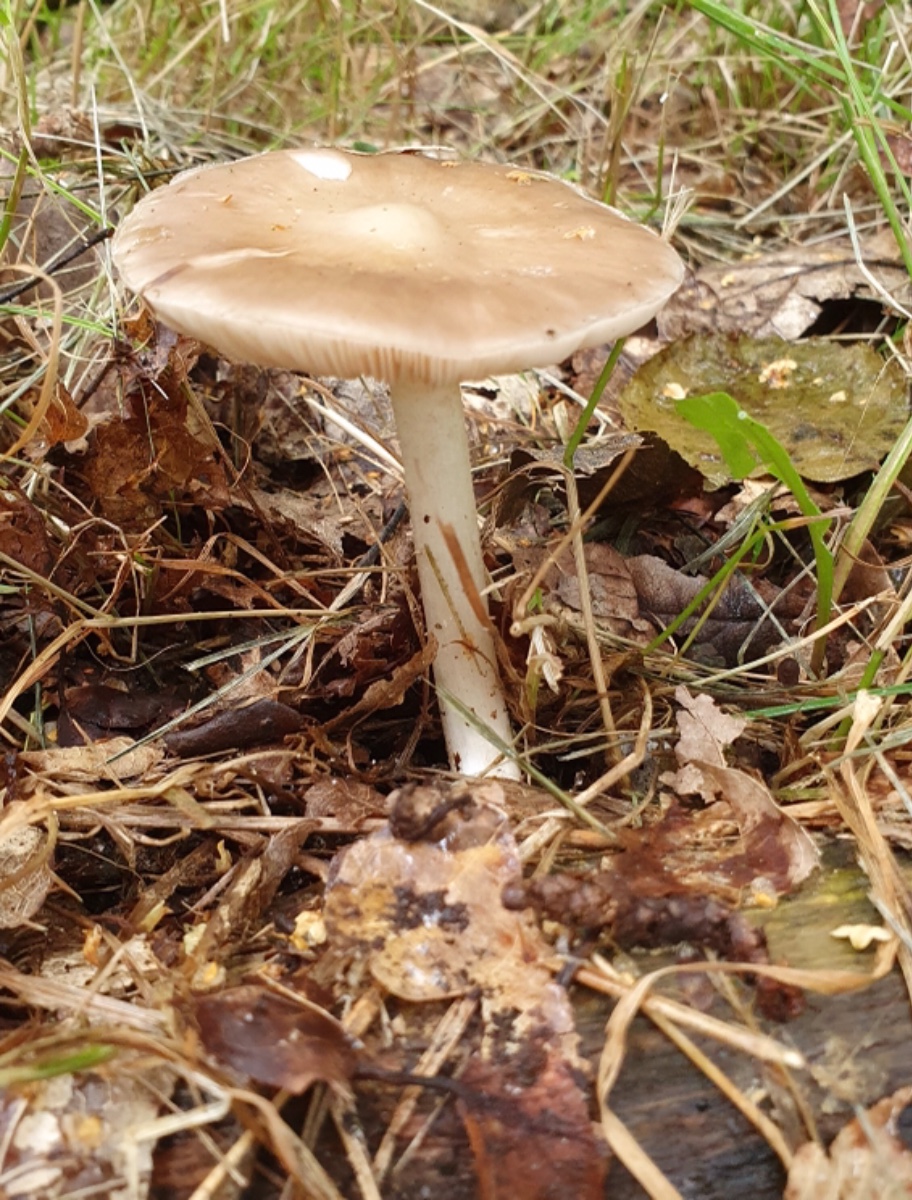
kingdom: Fungi
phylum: Basidiomycota
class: Agaricomycetes
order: Agaricales
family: Pluteaceae
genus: Pluteus
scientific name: Pluteus cervinus
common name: sodfarvet skærmhat
